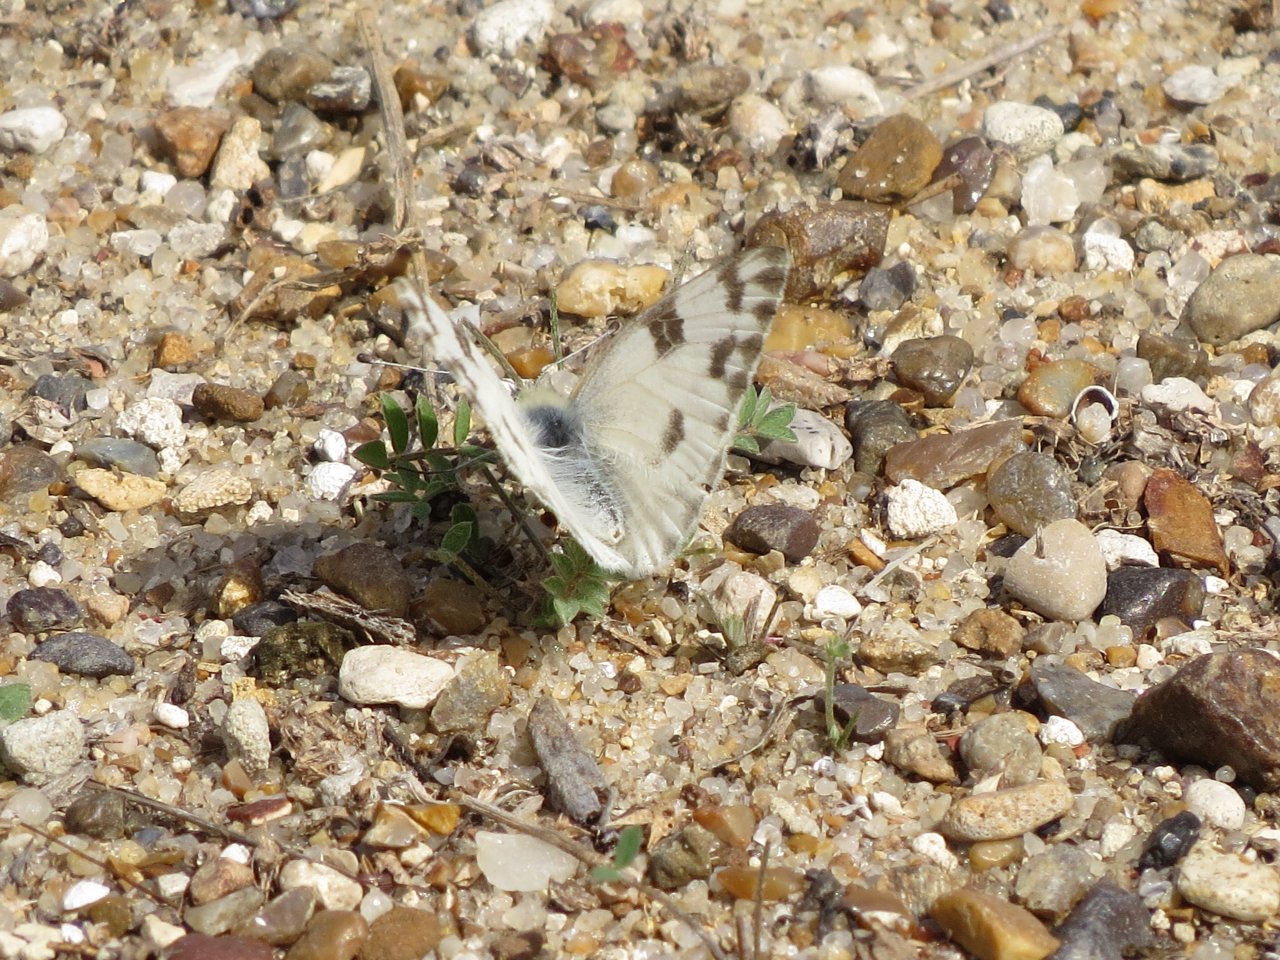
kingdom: Animalia
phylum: Arthropoda
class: Insecta
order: Lepidoptera
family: Pieridae
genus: Pontia
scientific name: Pontia protodice
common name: Checkered White
